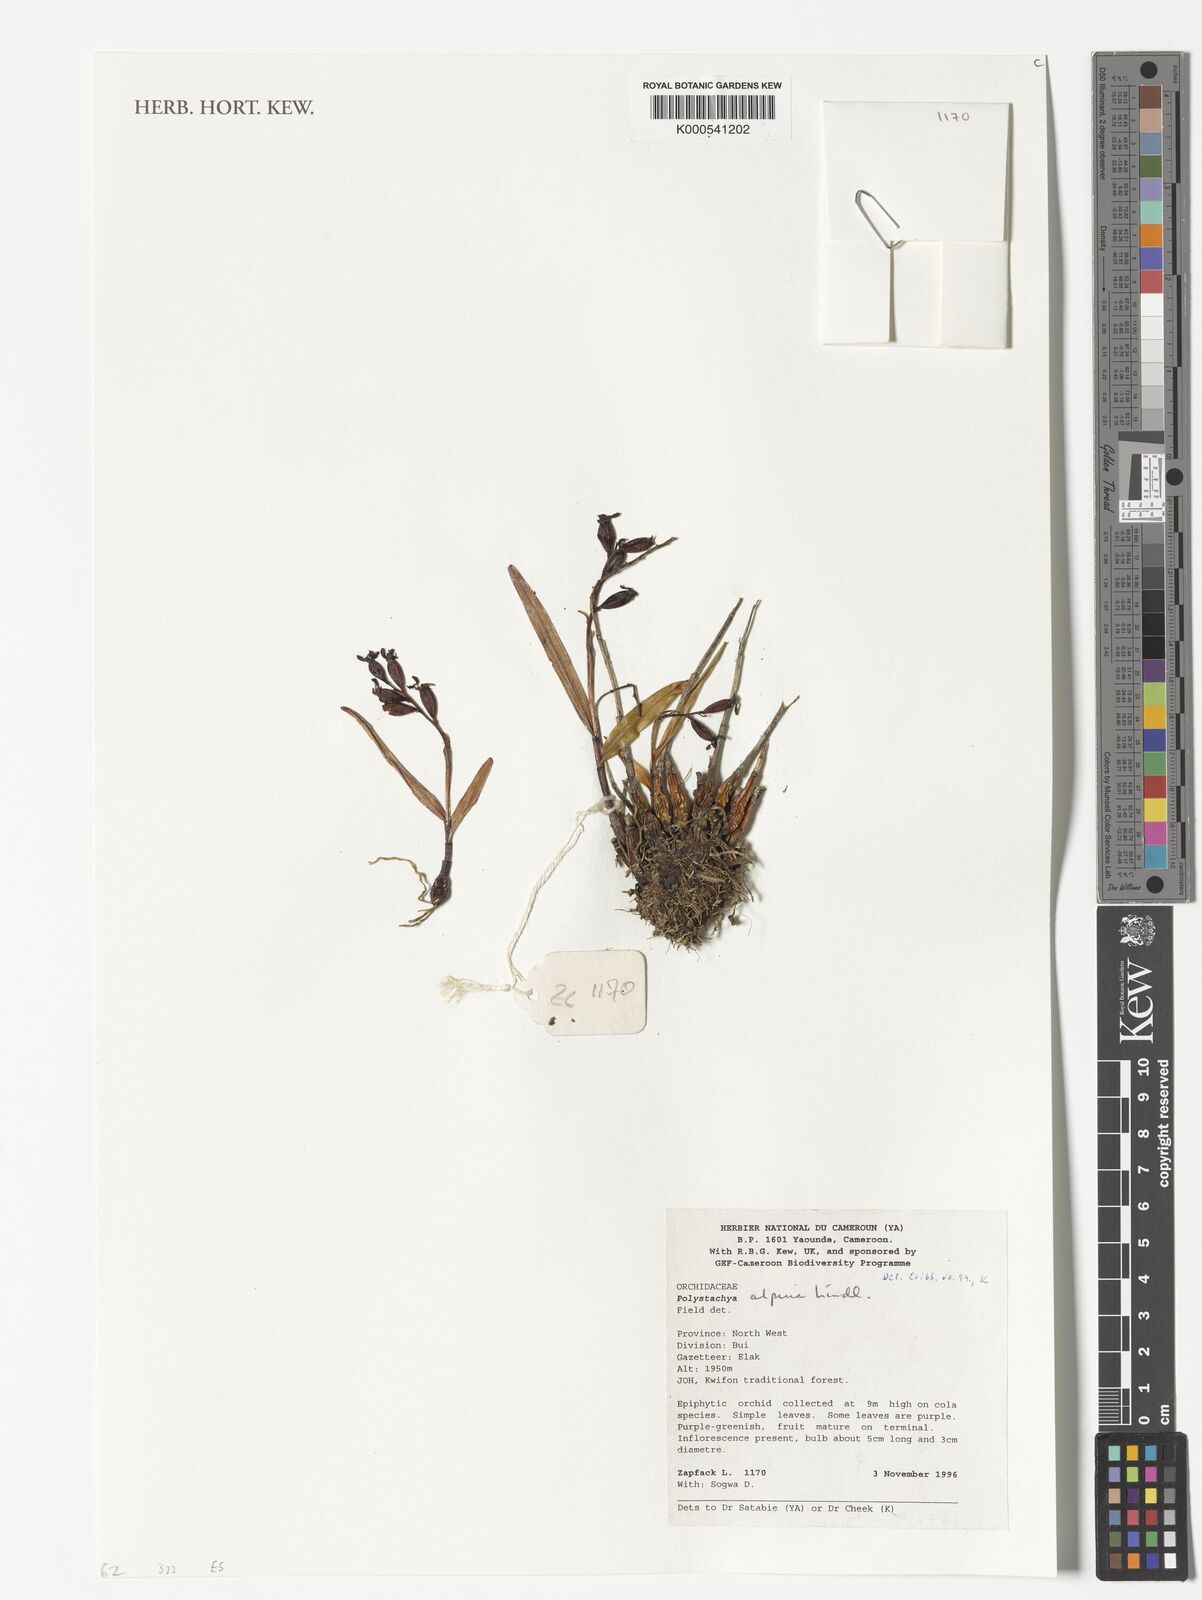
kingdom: Plantae
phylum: Tracheophyta
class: Liliopsida
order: Asparagales
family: Orchidaceae
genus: Polystachya
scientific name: Polystachya alpina
